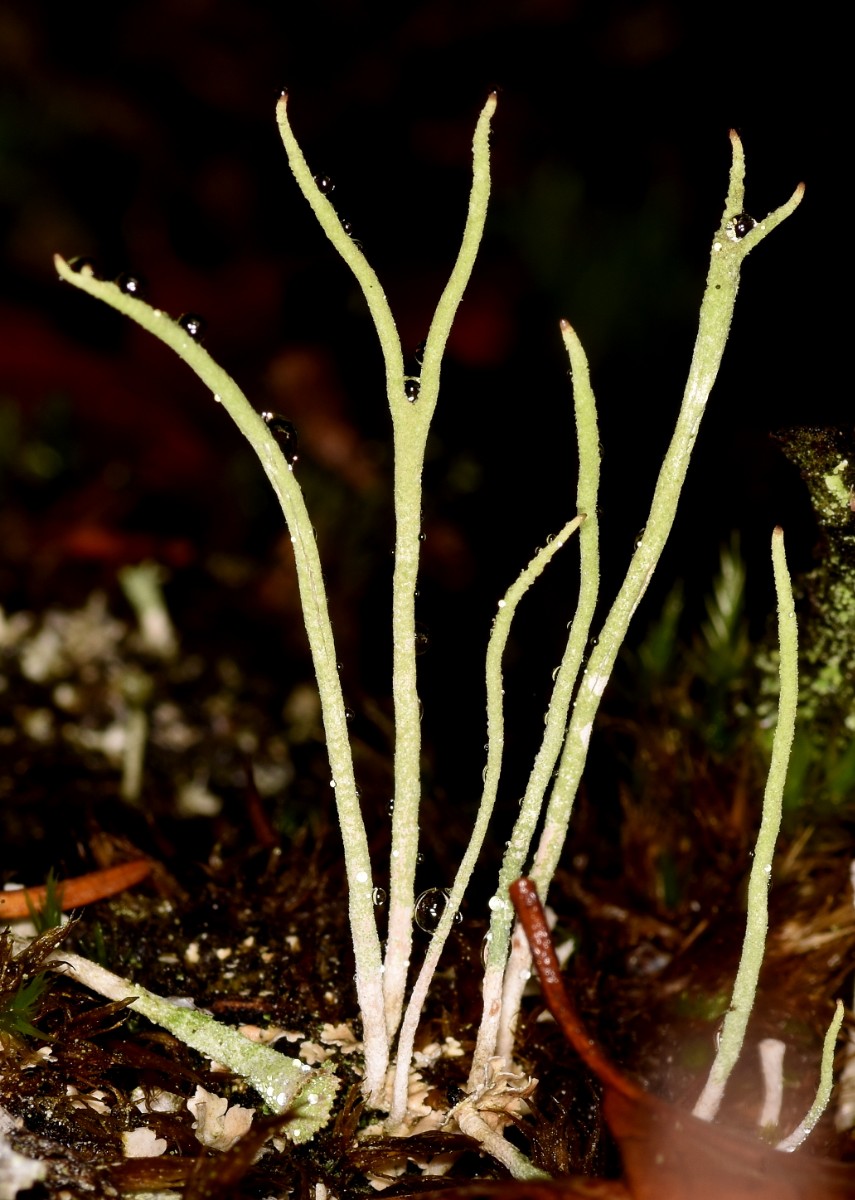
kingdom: Fungi
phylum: Ascomycota
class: Lecanoromycetes
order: Lecanorales
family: Cladoniaceae
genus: Cladonia
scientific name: Cladonia subulata
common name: spids bægerlav
